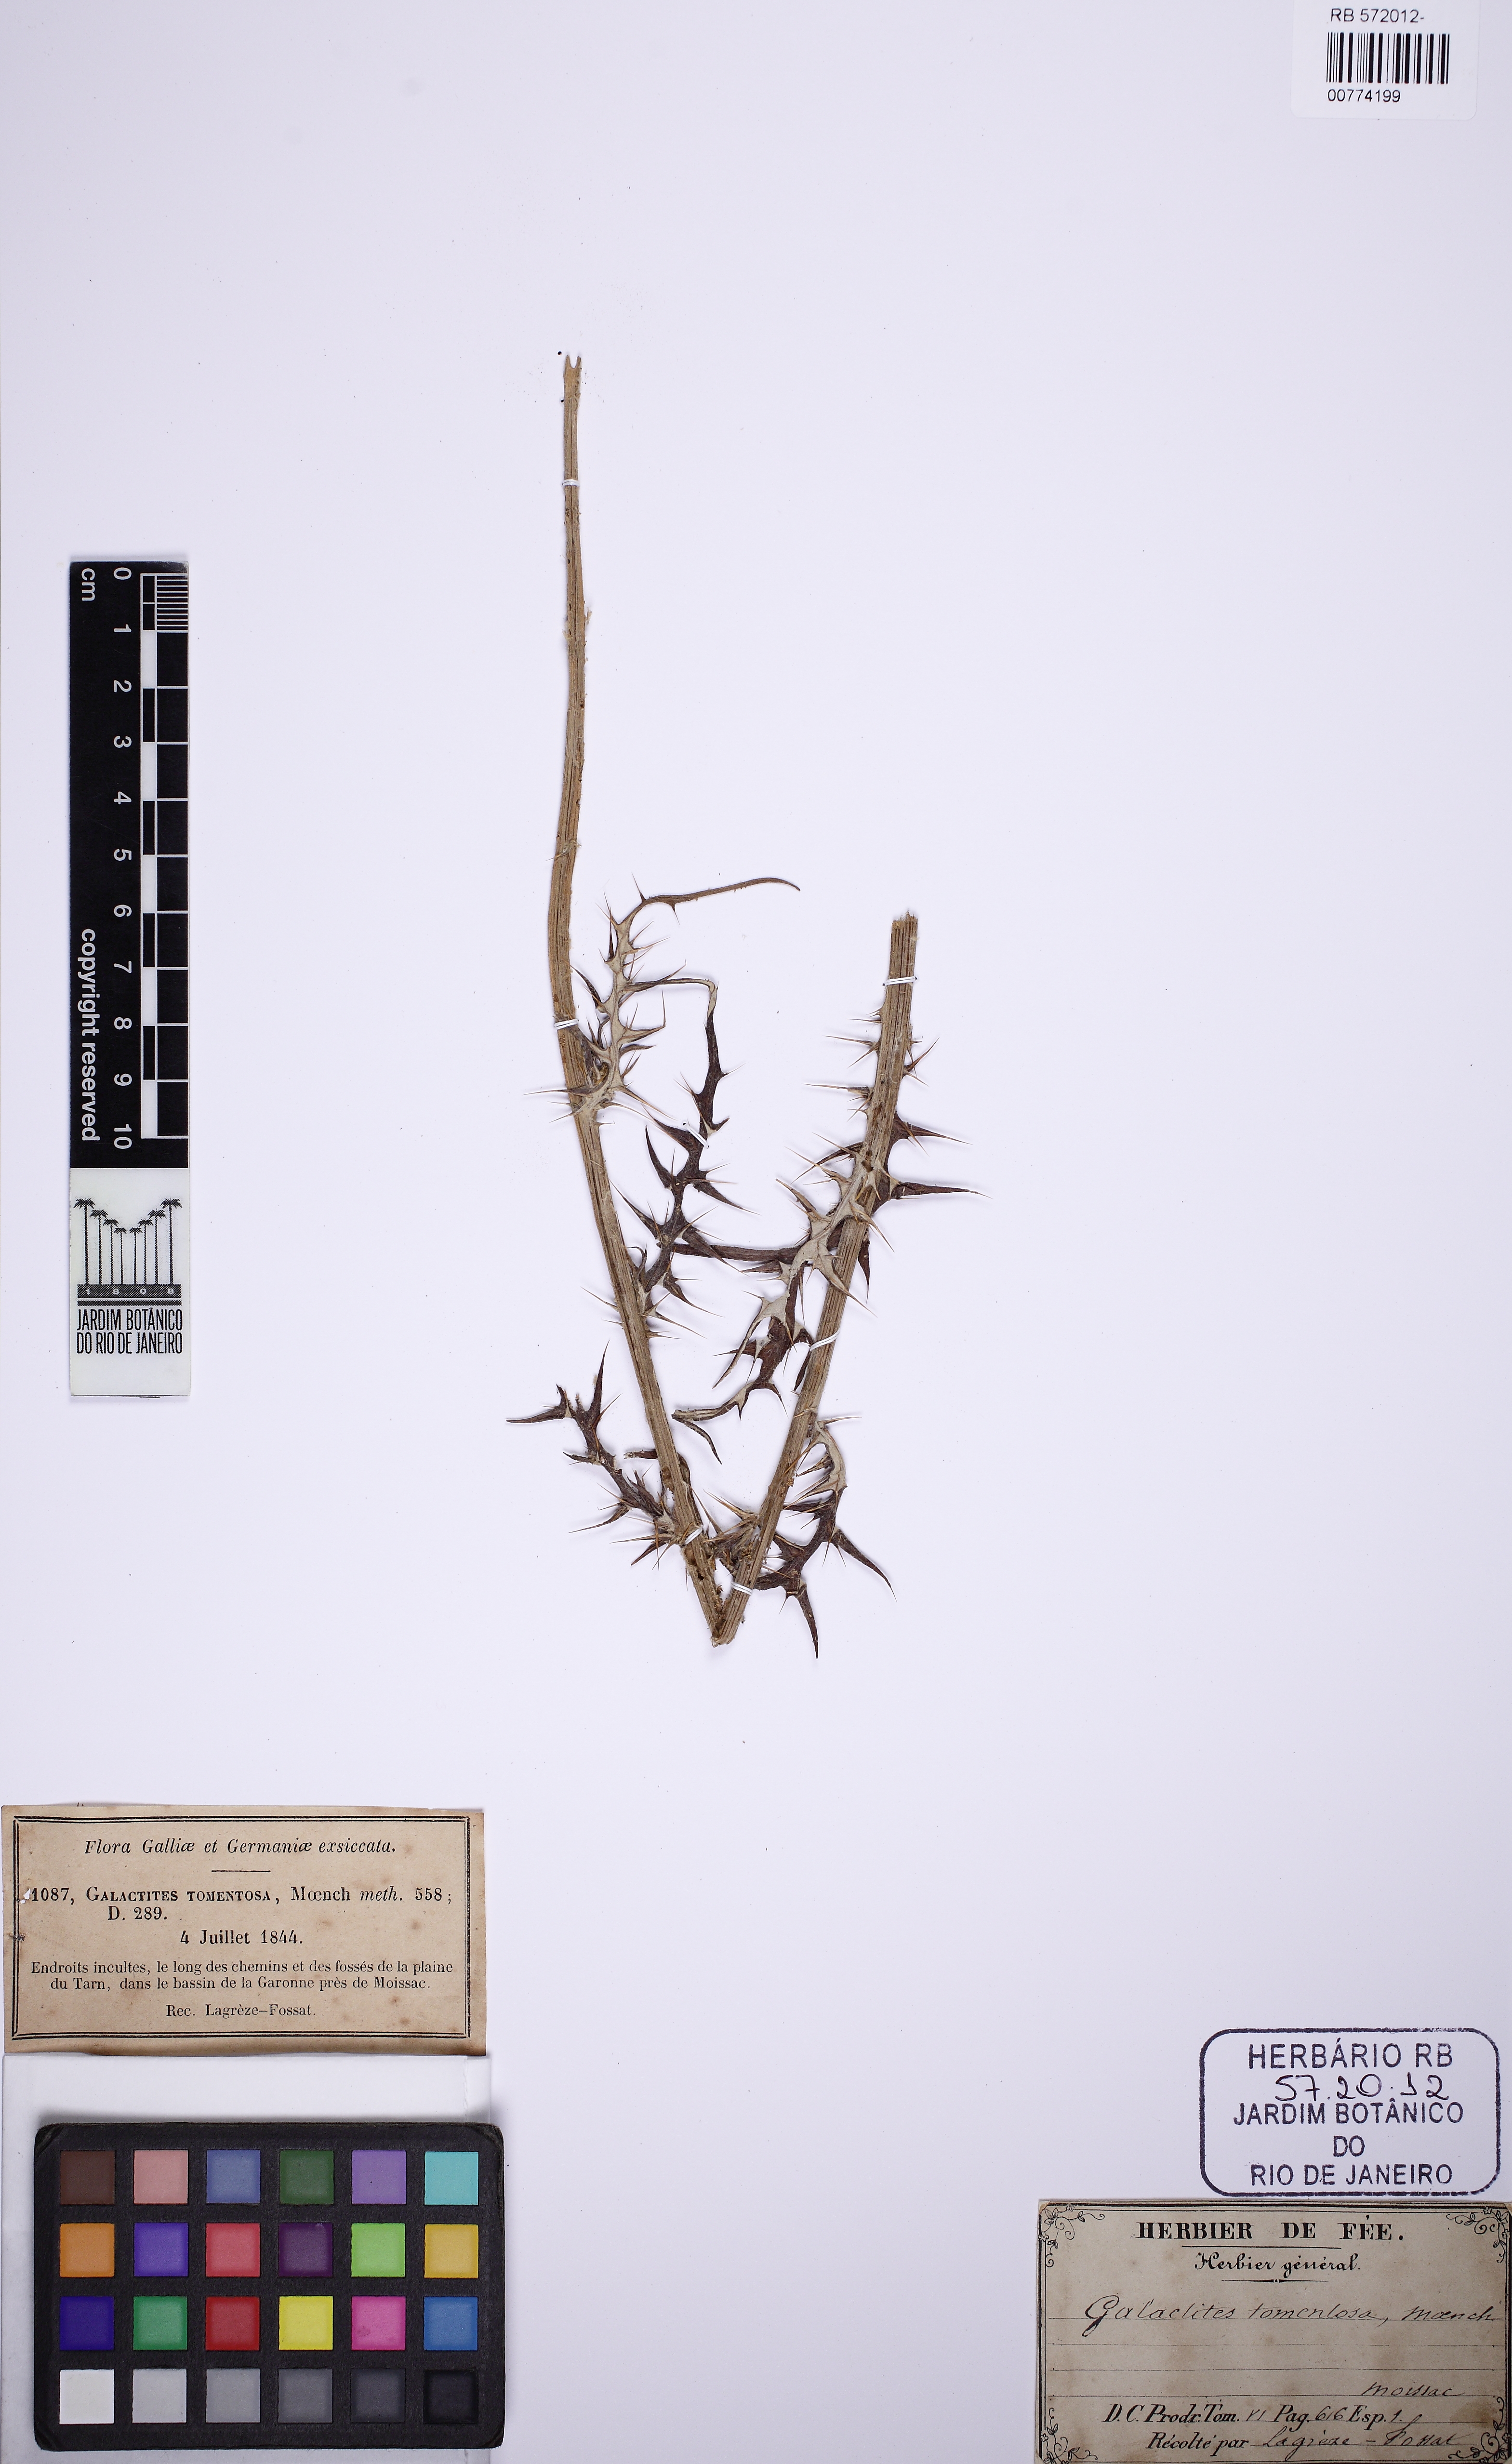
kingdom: Plantae
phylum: Tracheophyta
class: Magnoliopsida
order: Asterales
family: Asteraceae
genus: Galactites
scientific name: Galactites tomentosa
